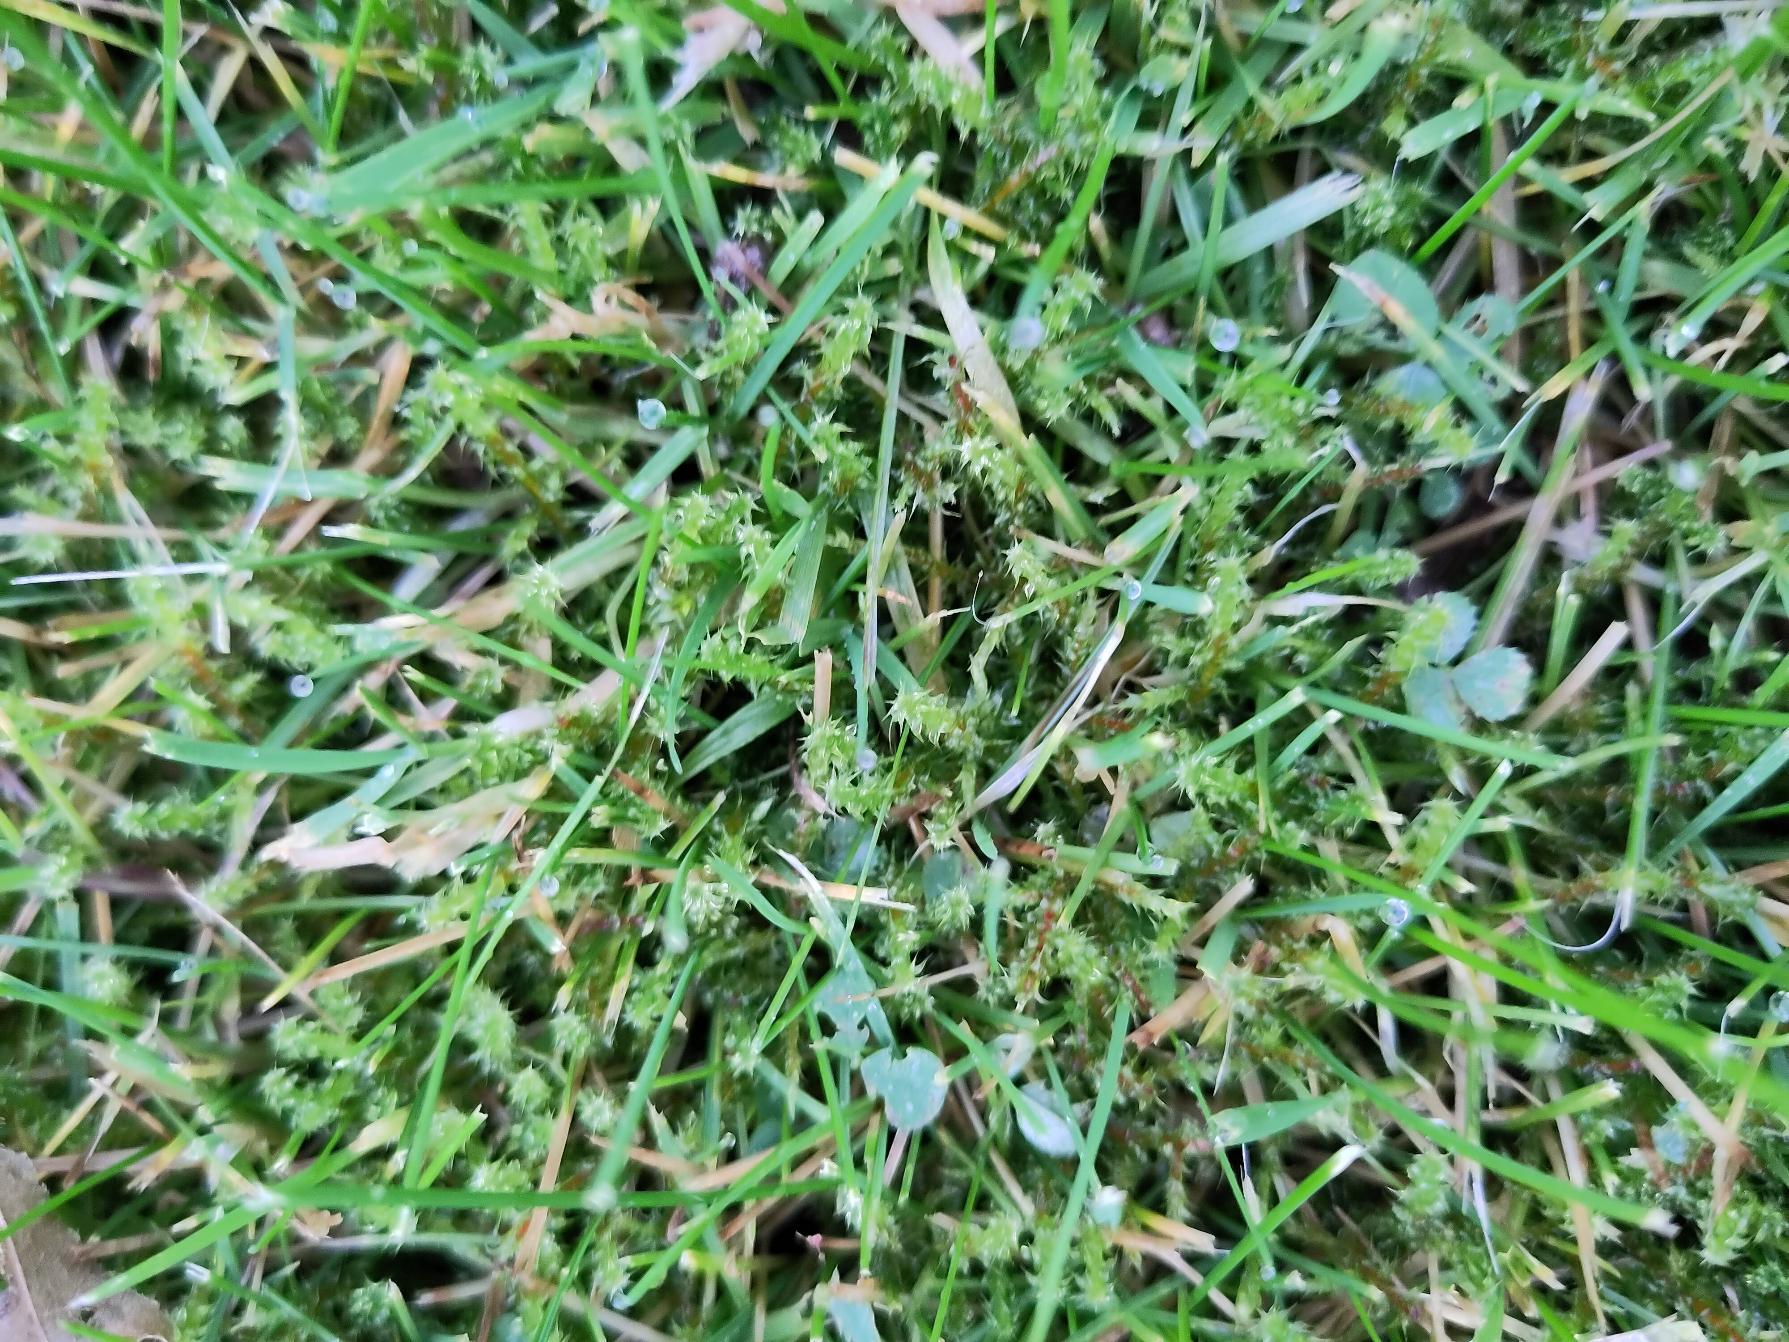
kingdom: Plantae
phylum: Bryophyta
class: Bryopsida
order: Hypnales
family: Hylocomiaceae
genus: Rhytidiadelphus
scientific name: Rhytidiadelphus squarrosus
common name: Plæne-kransemos
